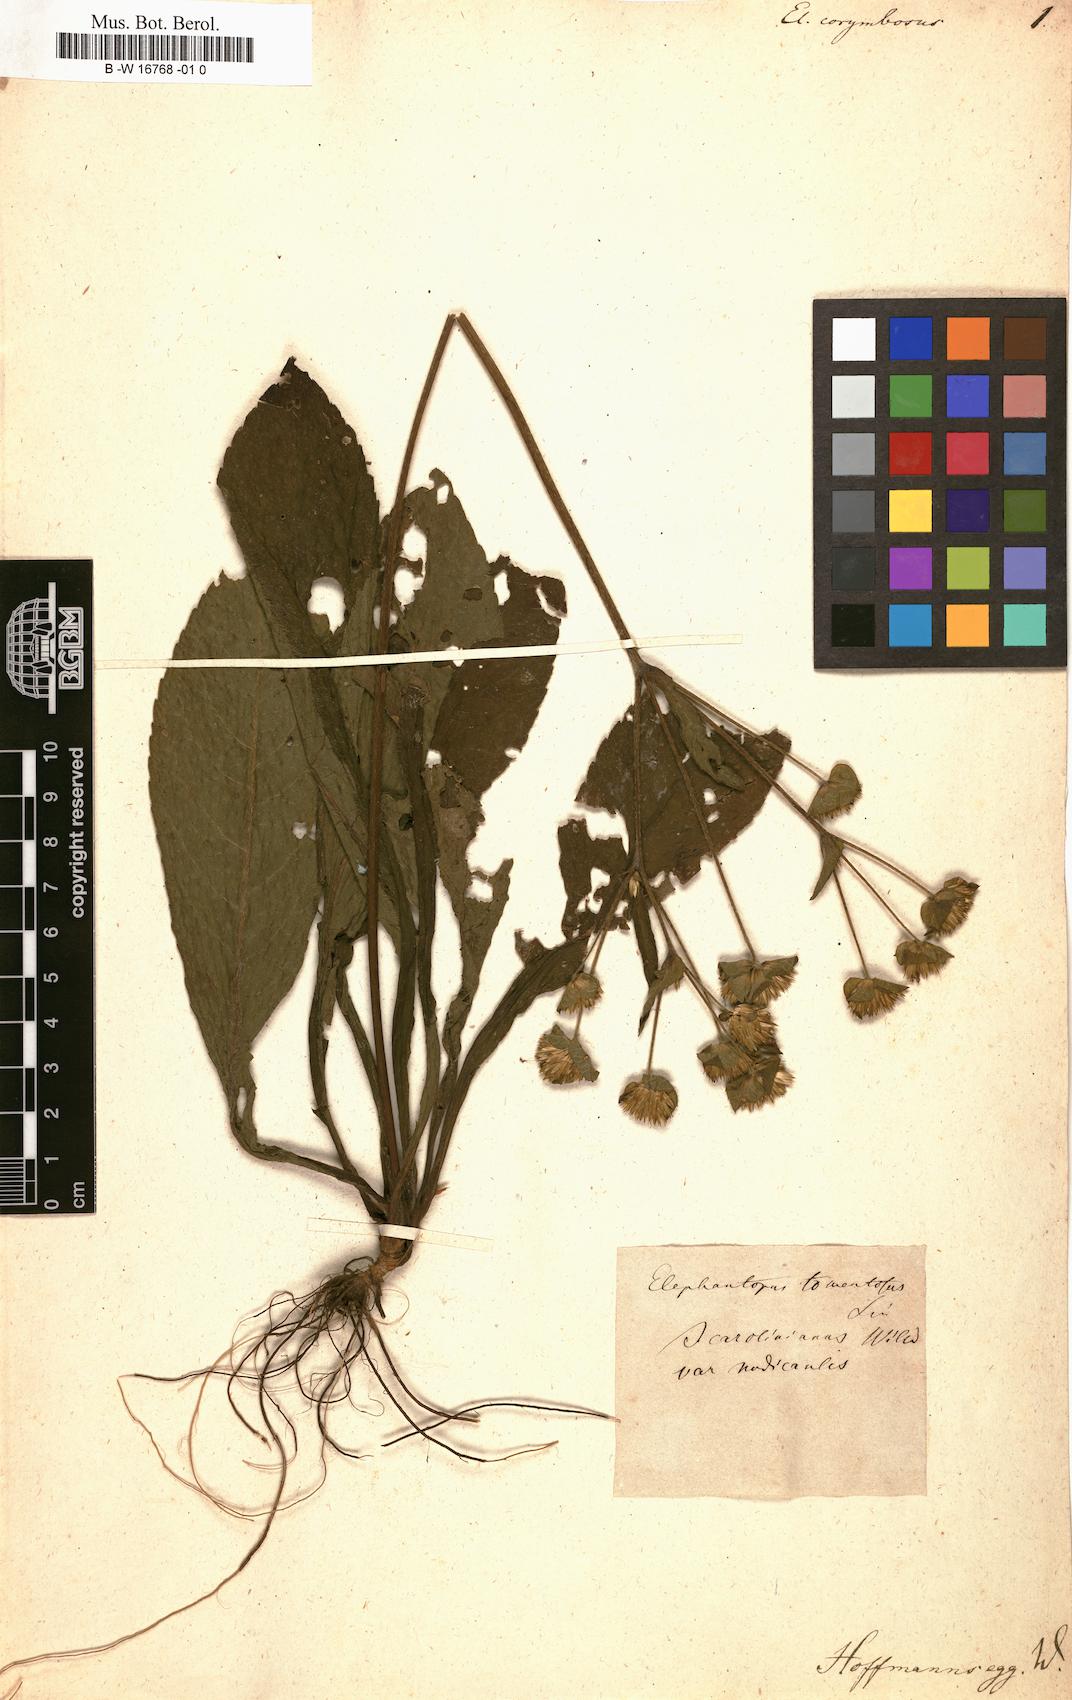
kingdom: Plantae
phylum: Tracheophyta
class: Magnoliopsida
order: Asterales
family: Asteraceae
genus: Elephantopus
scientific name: Elephantopus
